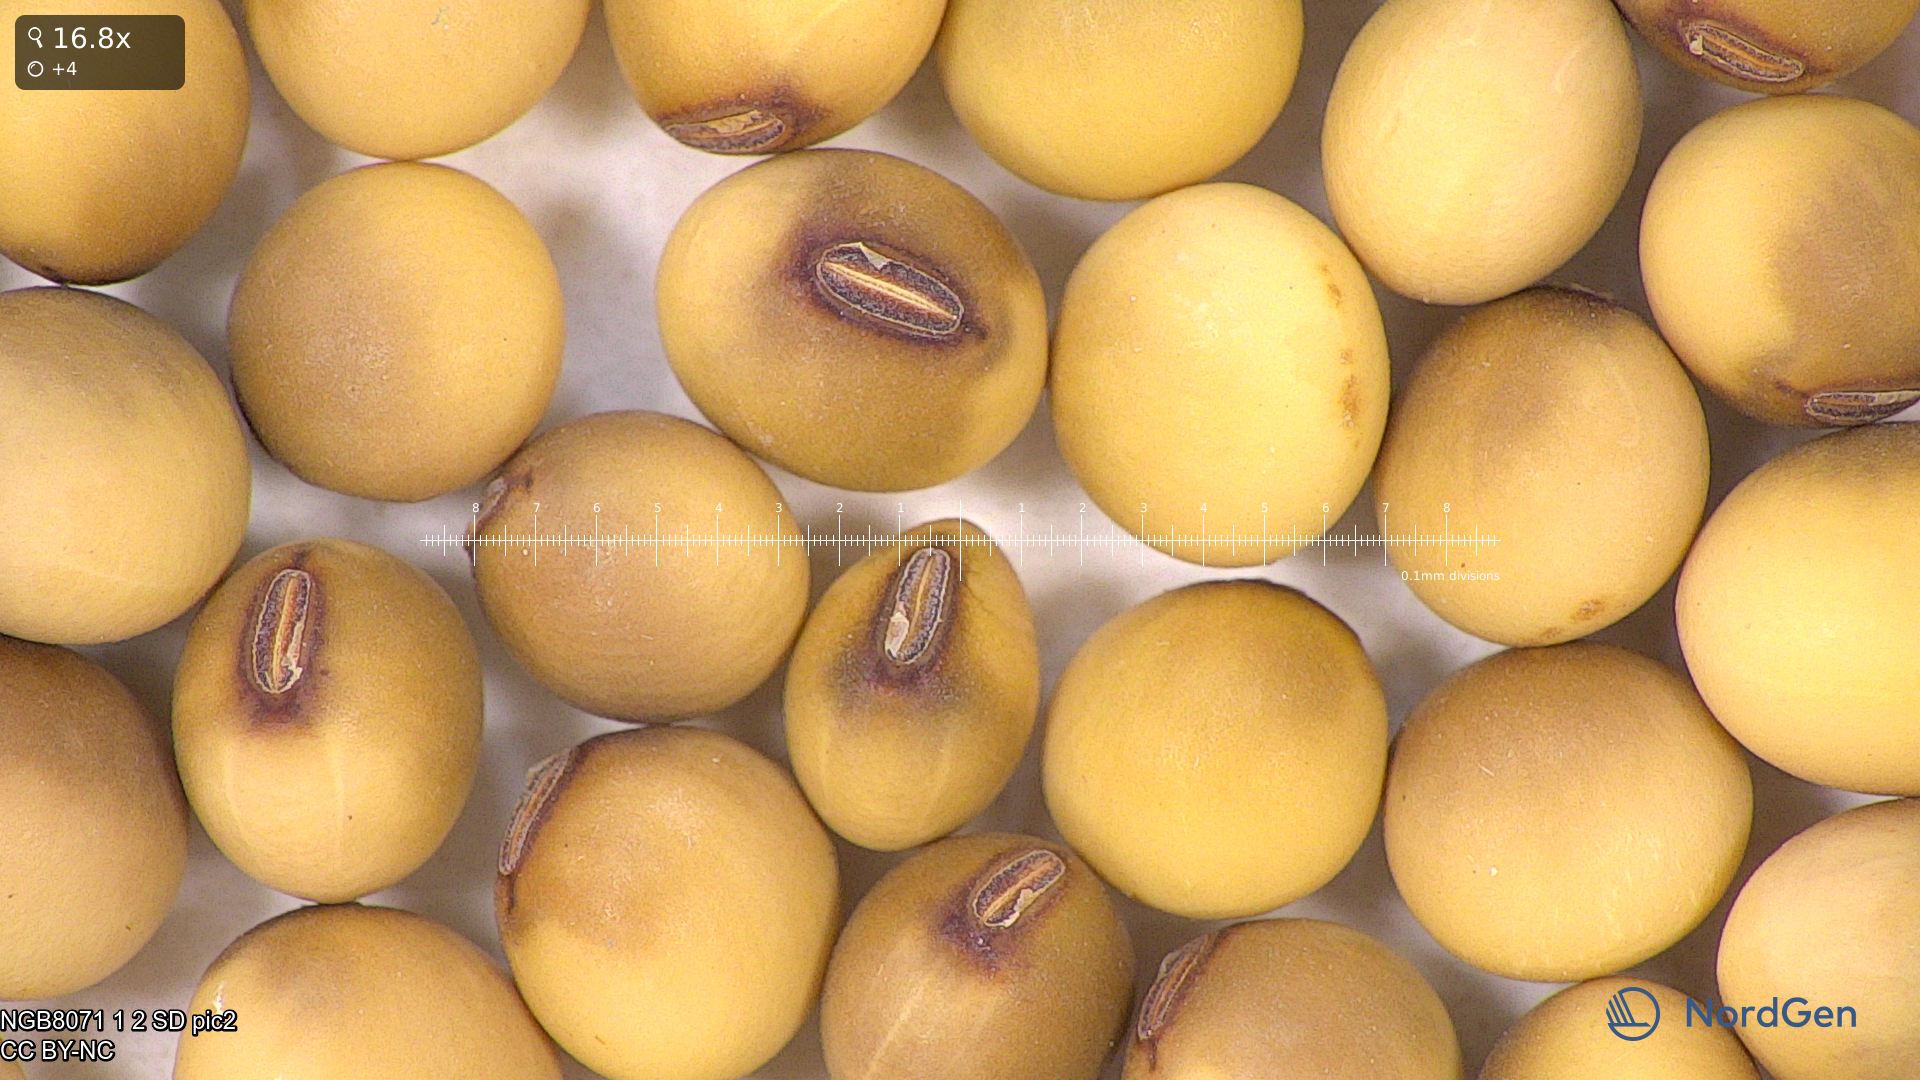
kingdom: Plantae
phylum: Tracheophyta
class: Magnoliopsida
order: Fabales
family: Fabaceae
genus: Glycine
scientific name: Glycine max
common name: Soya-bean
